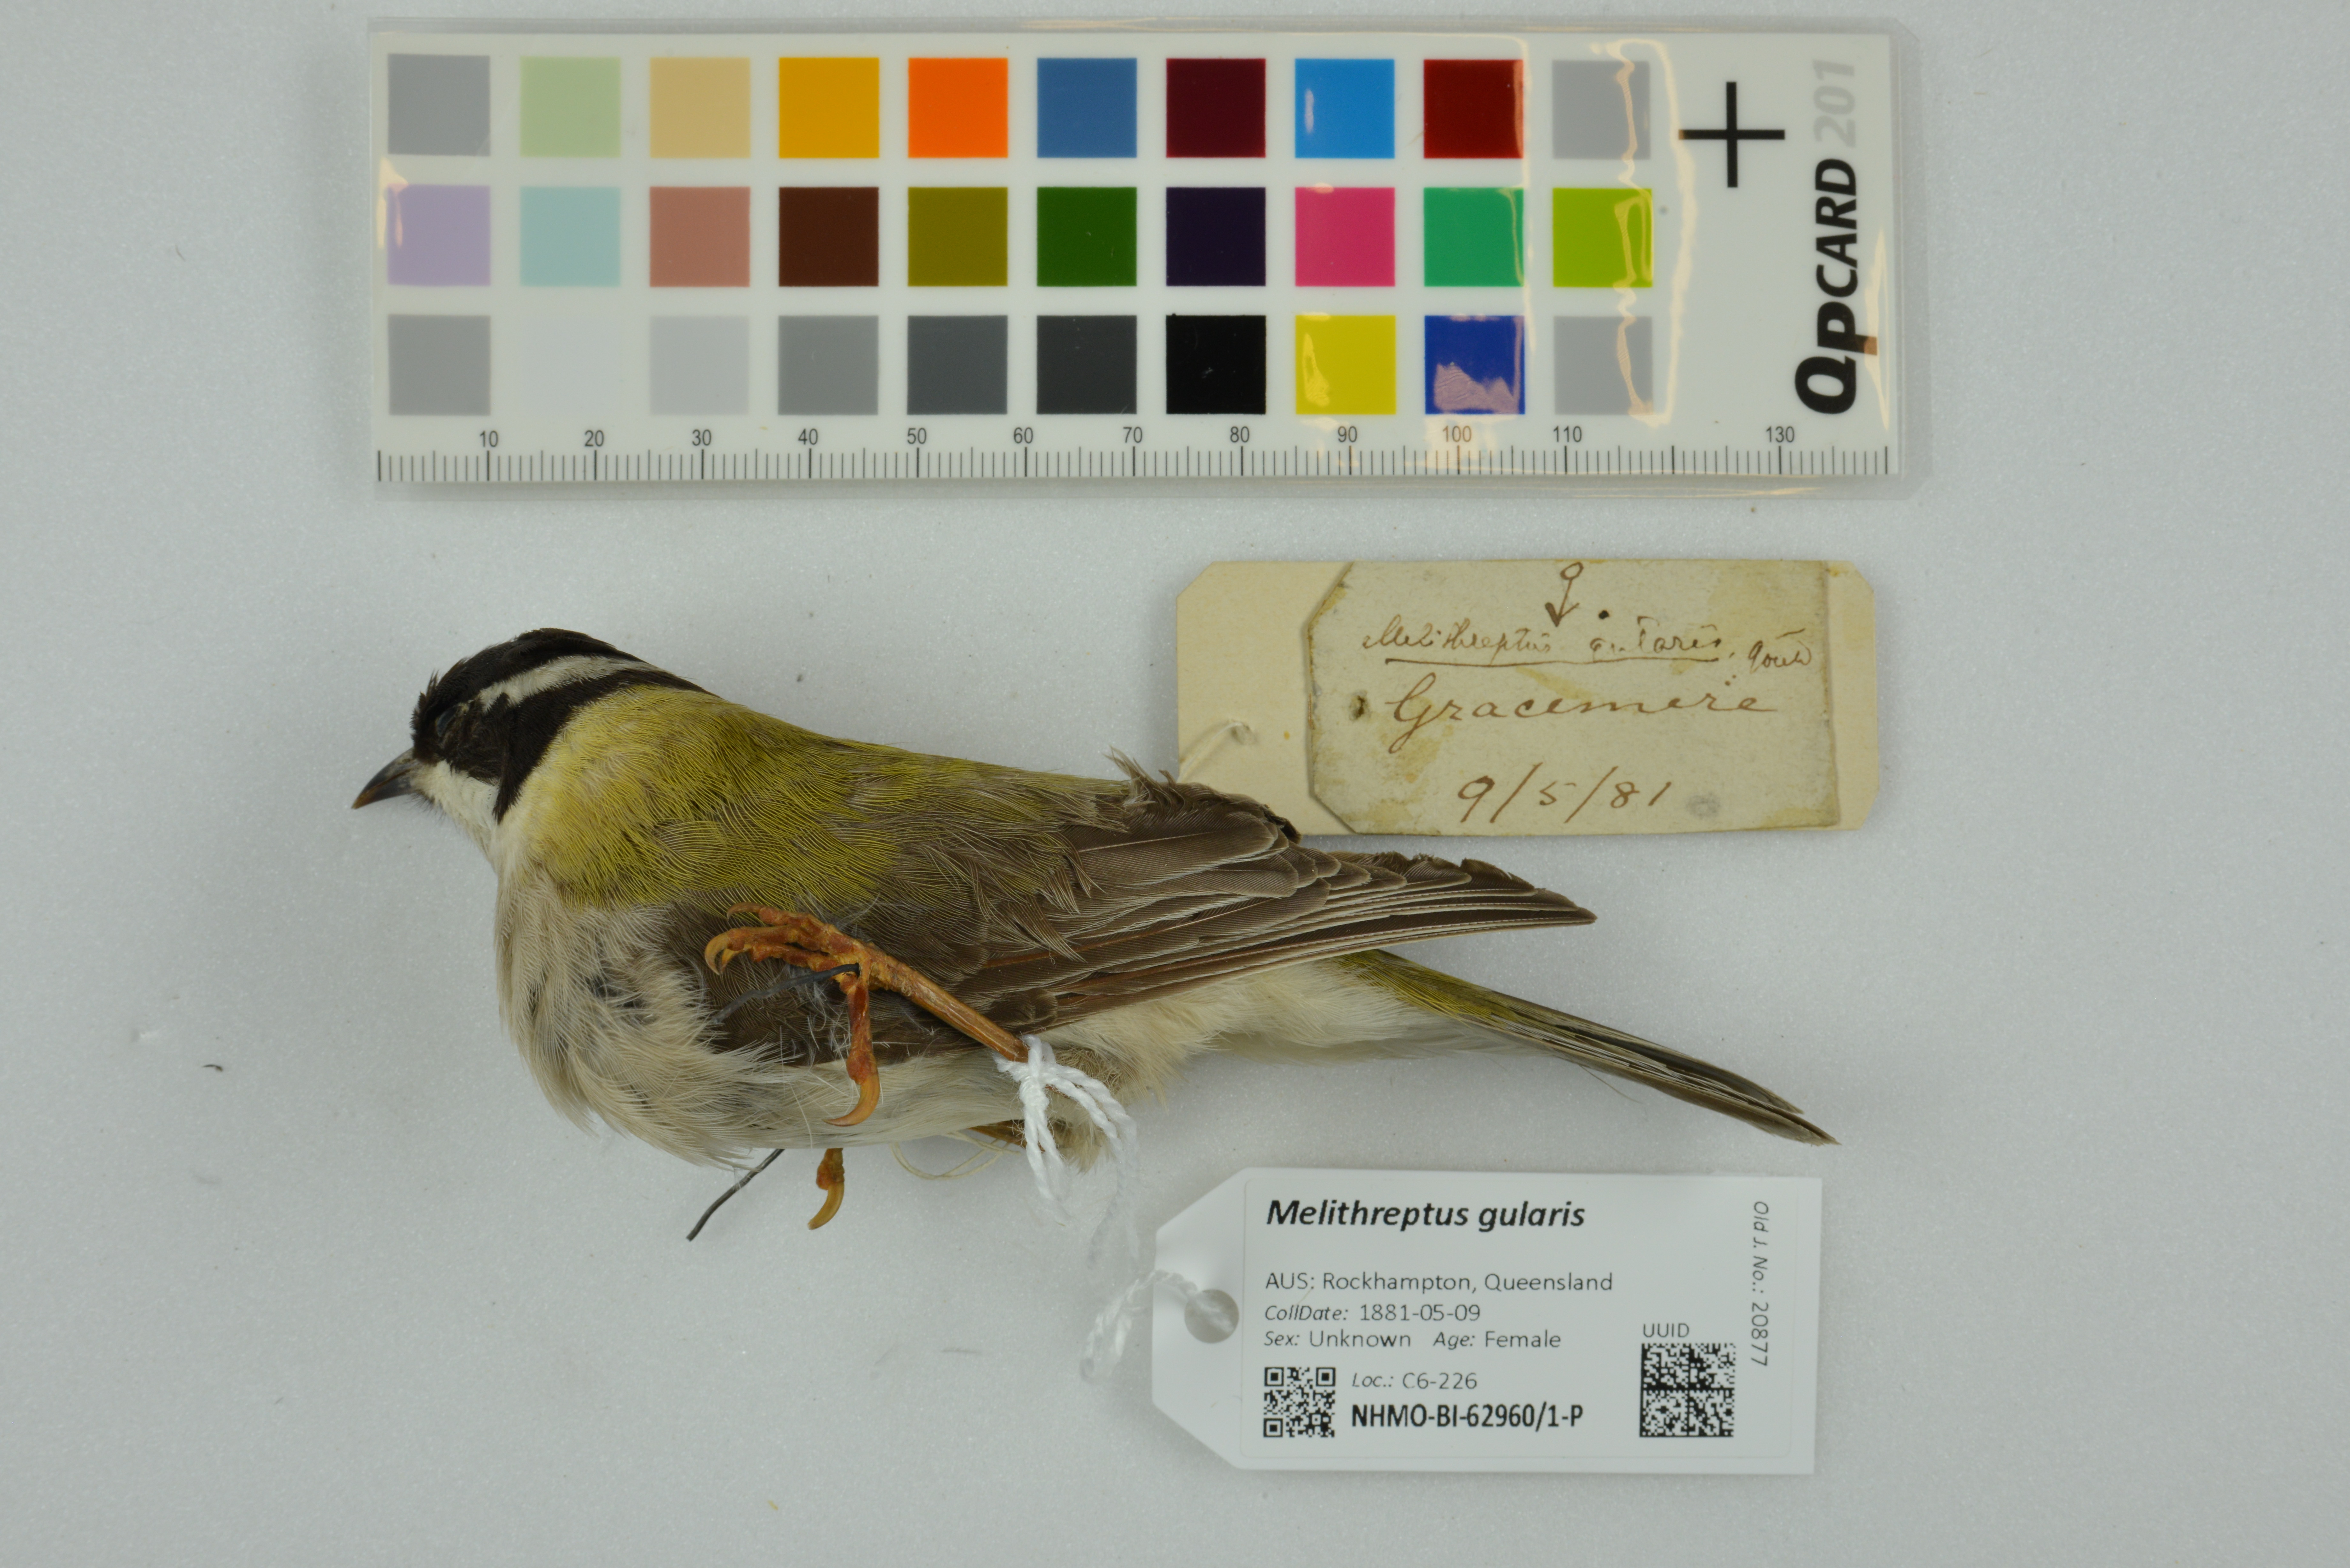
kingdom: Animalia
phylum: Chordata
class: Aves
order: Passeriformes
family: Meliphagidae
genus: Melithreptus
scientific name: Melithreptus gularis
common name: Black-chinned honeyeater
